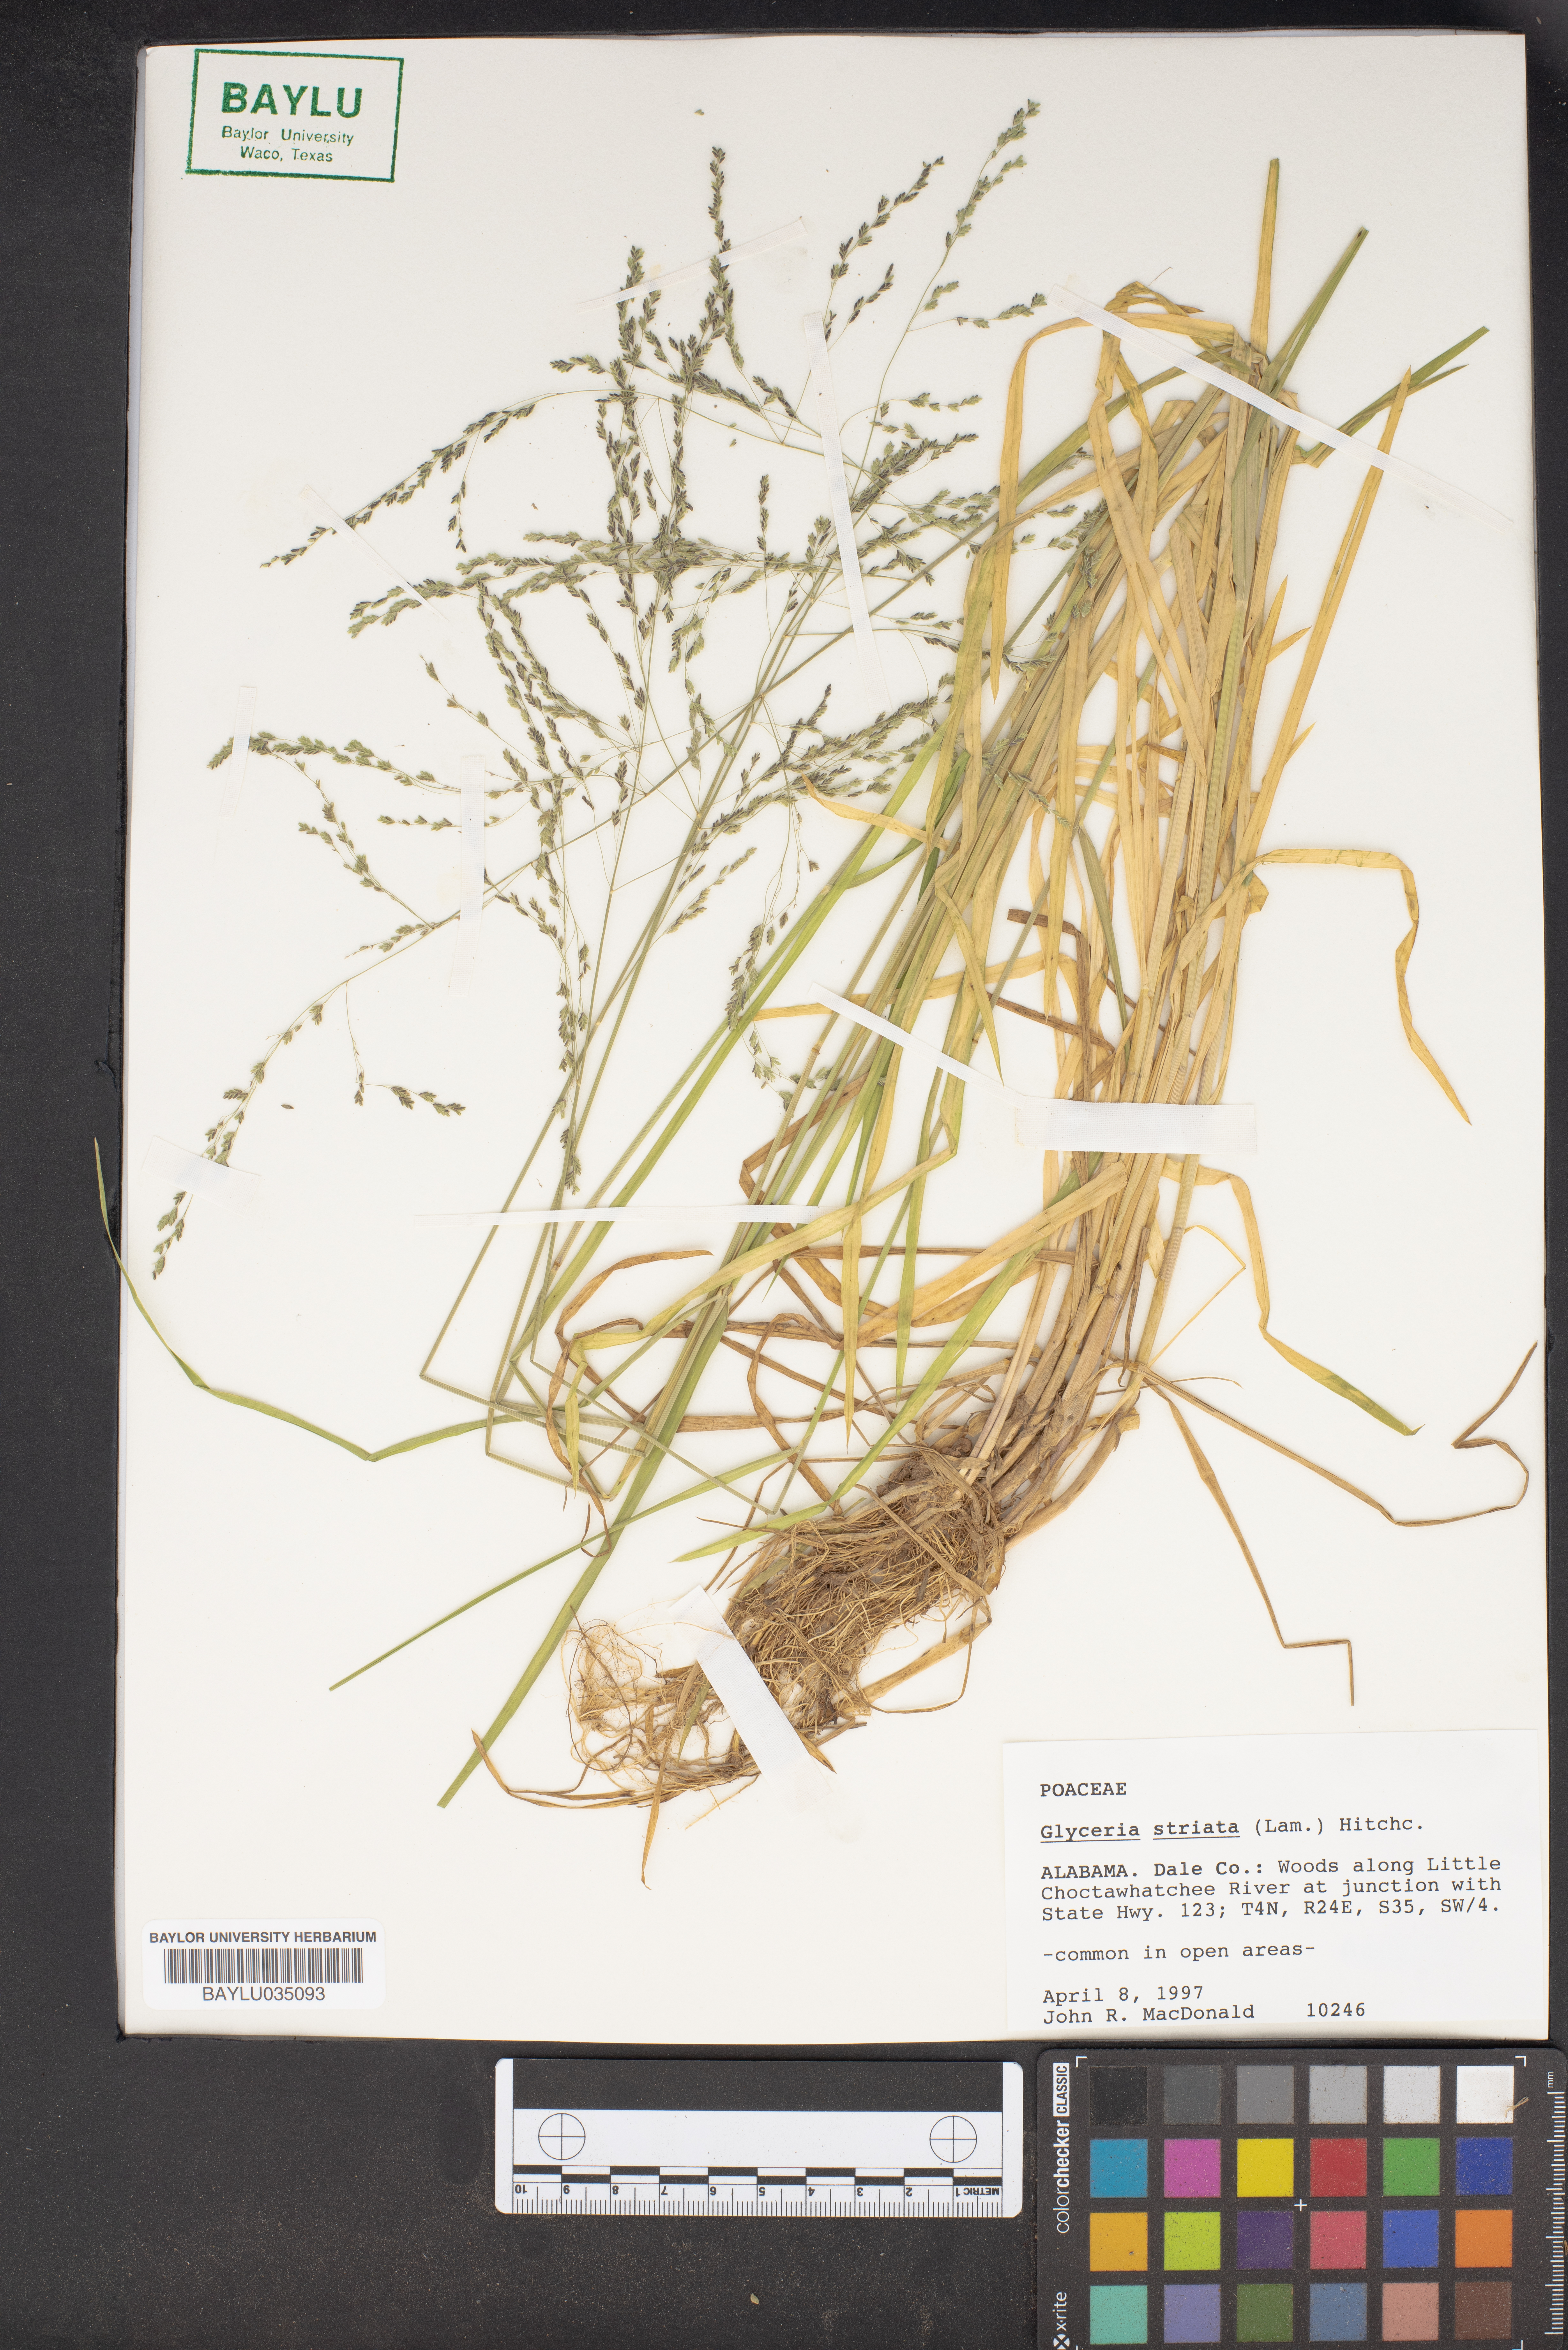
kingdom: Plantae
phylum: Tracheophyta
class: Liliopsida
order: Poales
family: Poaceae
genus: Glyceria
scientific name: Glyceria striata
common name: Fowl manna grass
